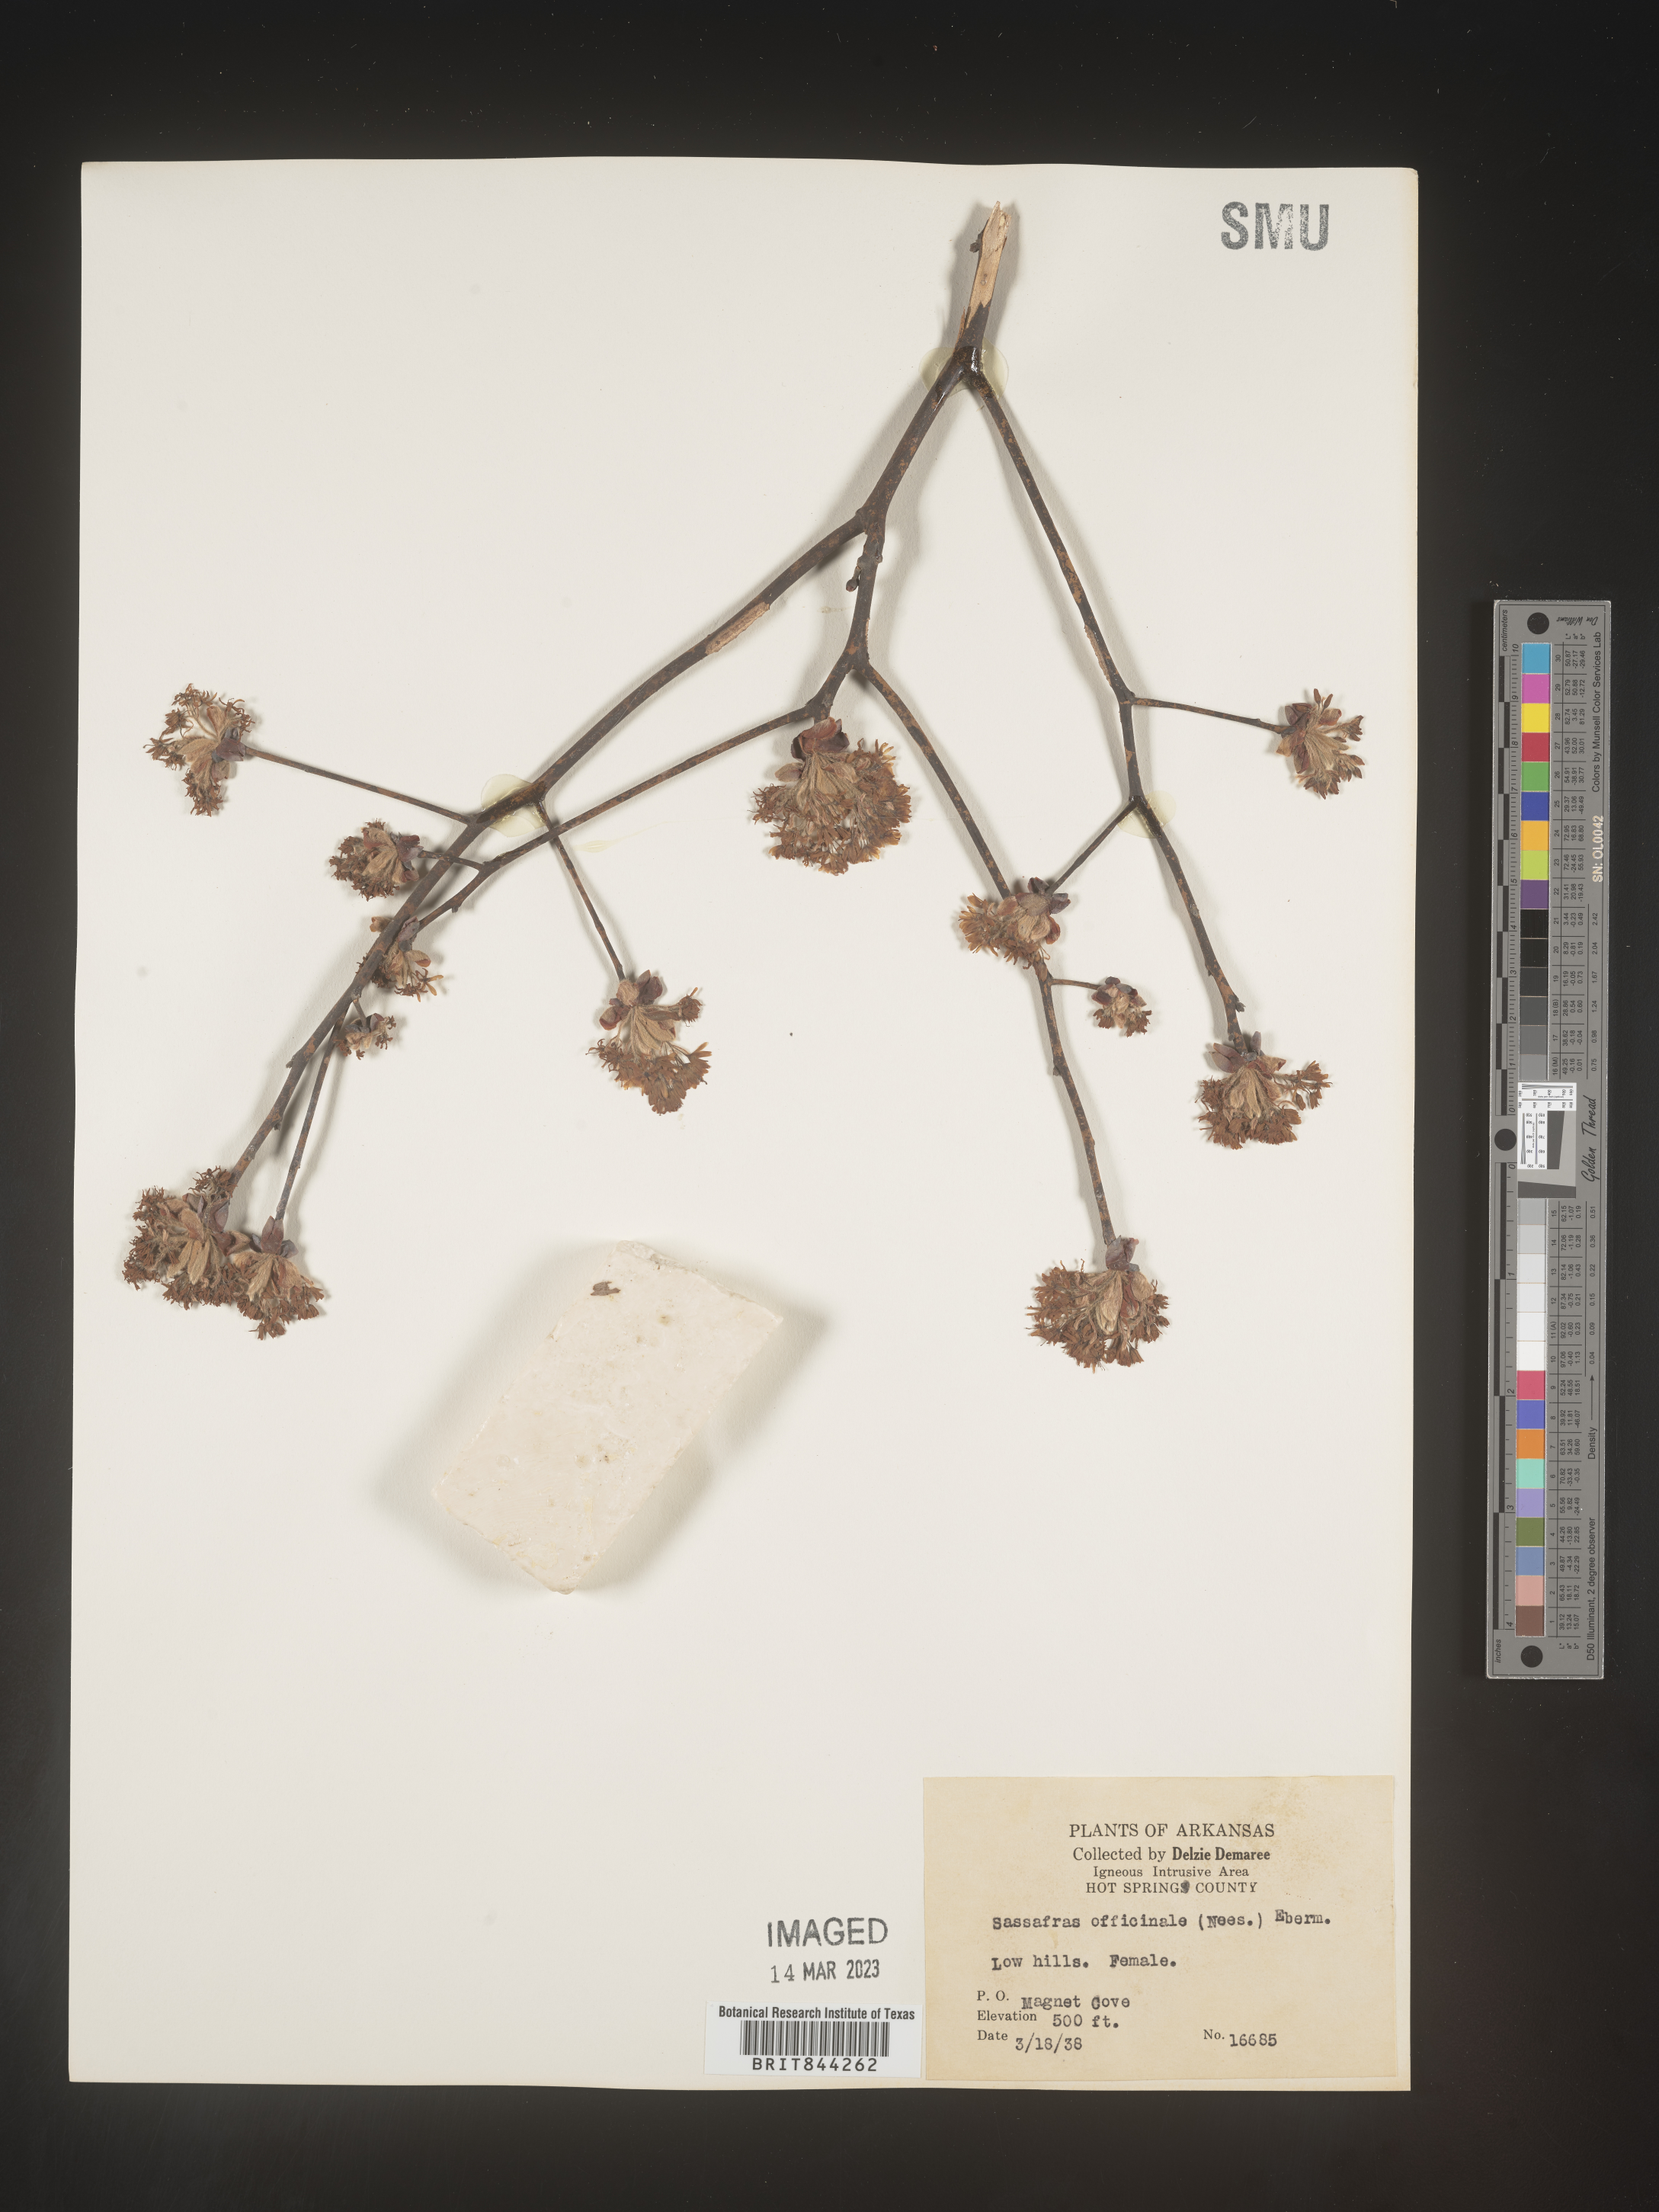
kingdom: Plantae
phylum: Tracheophyta
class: Magnoliopsida
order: Laurales
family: Lauraceae
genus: Sassafras
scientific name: Sassafras albidum
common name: Sassafras
